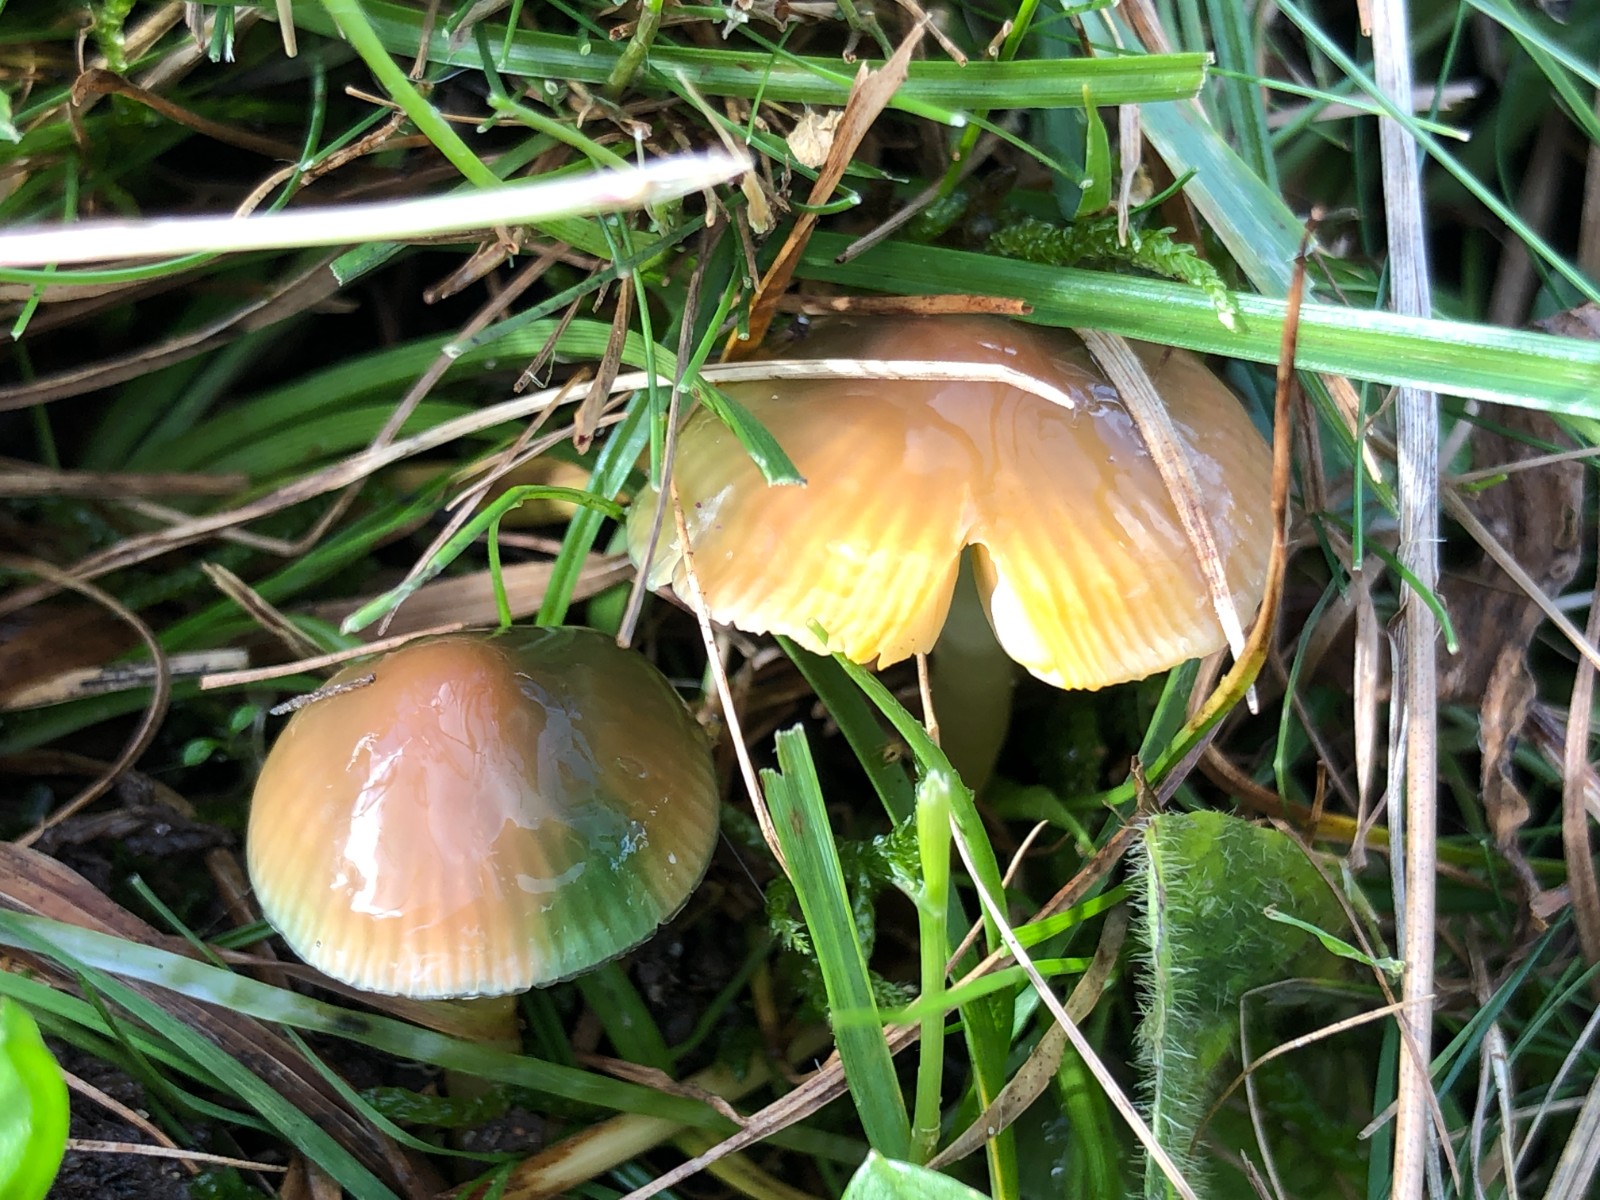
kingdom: Fungi
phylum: Basidiomycota
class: Agaricomycetes
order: Agaricales
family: Hygrophoraceae
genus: Gliophorus
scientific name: Gliophorus psittacinus
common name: papegøje-vokshat
